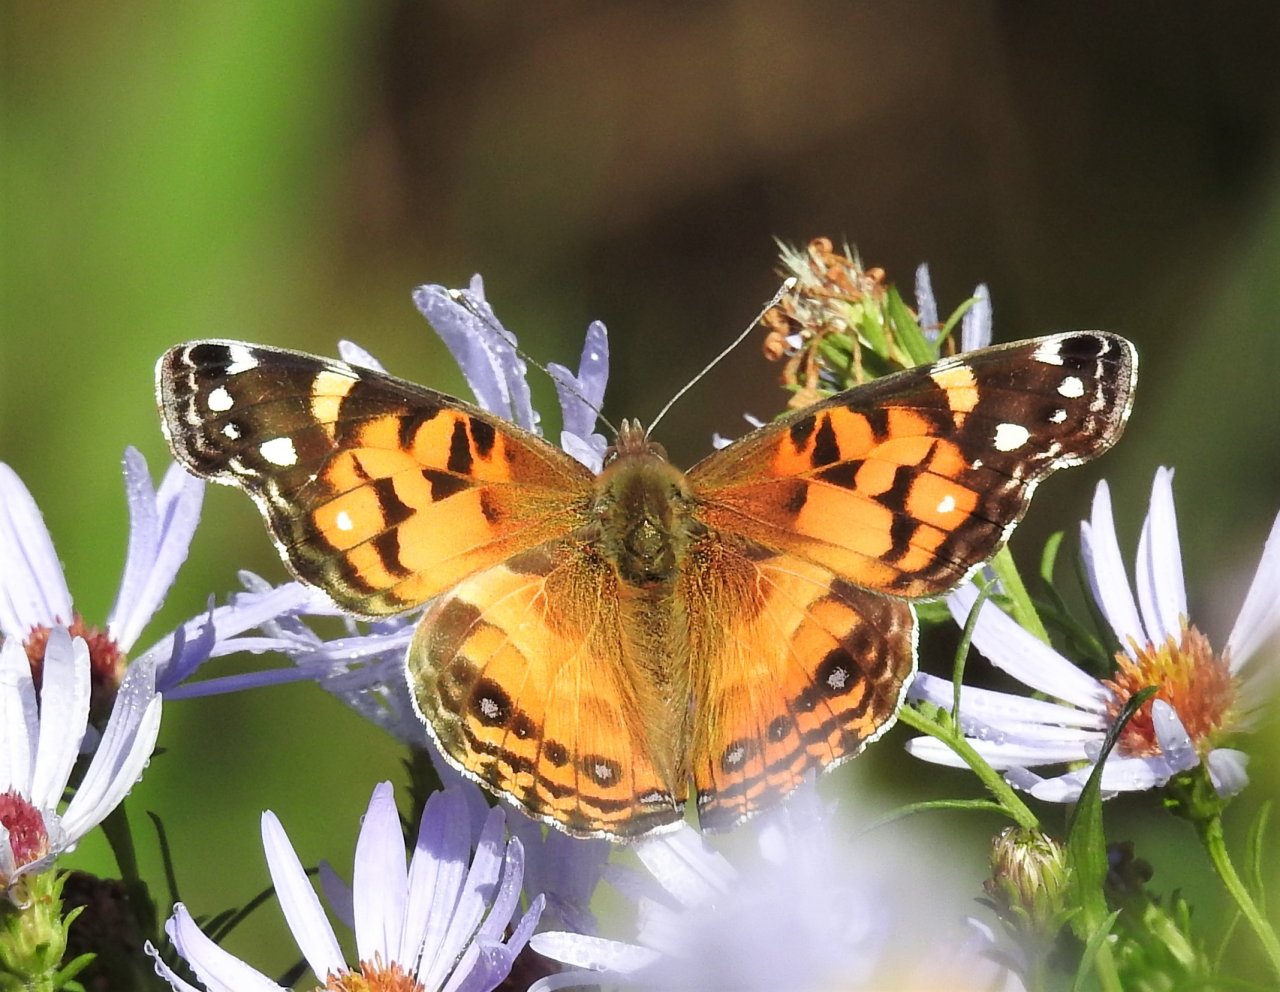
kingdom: Animalia
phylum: Arthropoda
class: Insecta
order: Lepidoptera
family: Nymphalidae
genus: Vanessa
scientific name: Vanessa virginiensis
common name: American Lady
